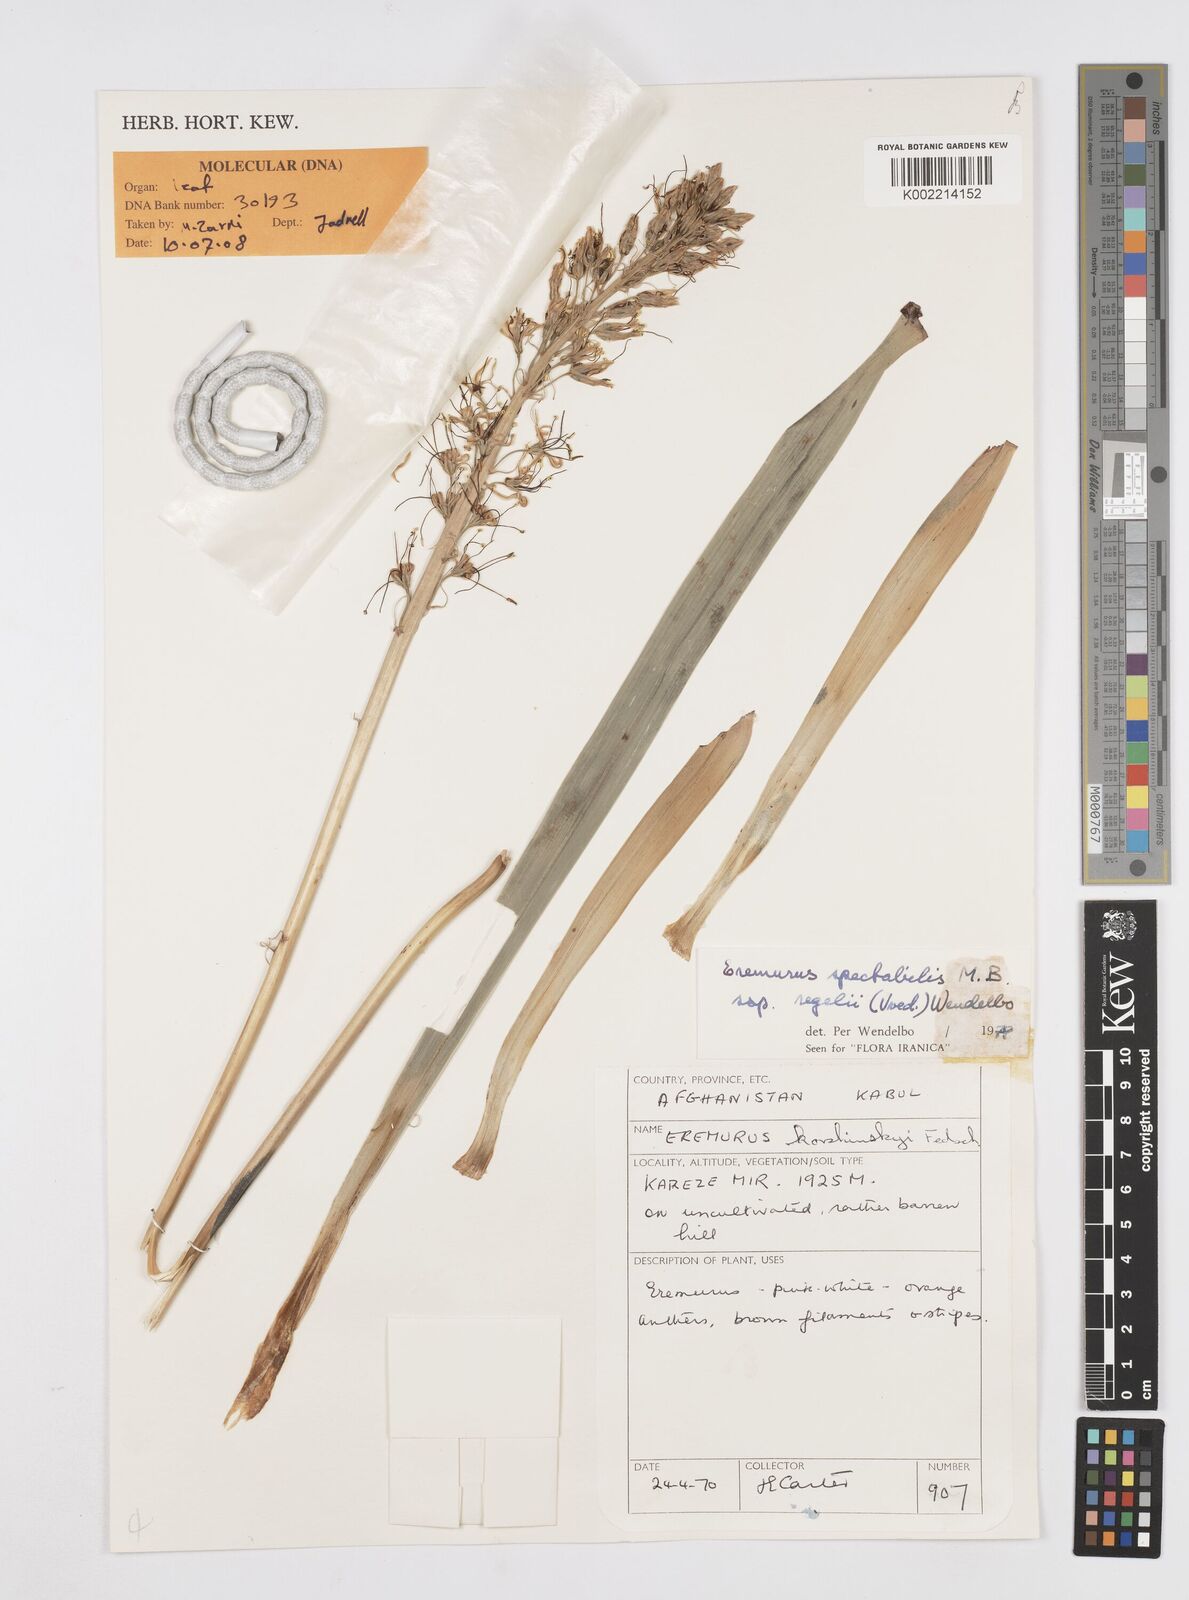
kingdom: Plantae
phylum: Tracheophyta
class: Liliopsida
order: Asparagales
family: Asphodelaceae
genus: Eremurus
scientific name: Eremurus spectabilis
